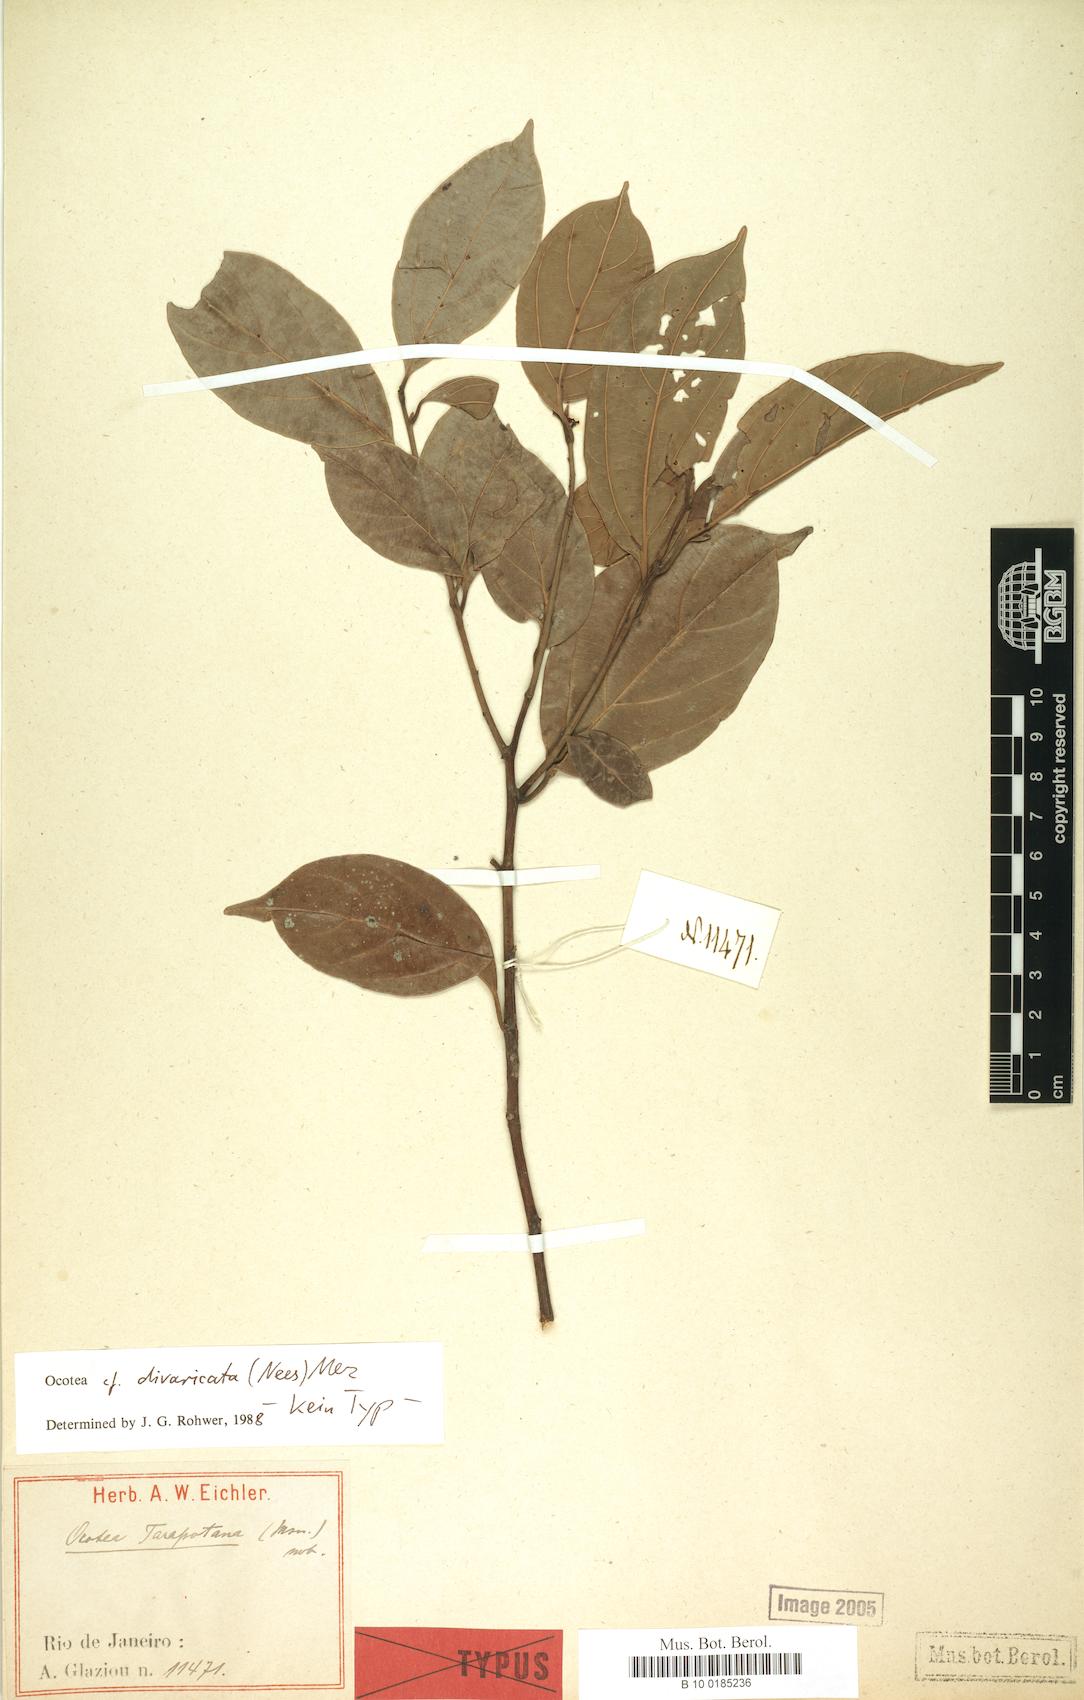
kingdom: Plantae
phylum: Tracheophyta
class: Magnoliopsida
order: Laurales
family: Lauraceae
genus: Ocotea
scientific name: Ocotea divaricata
